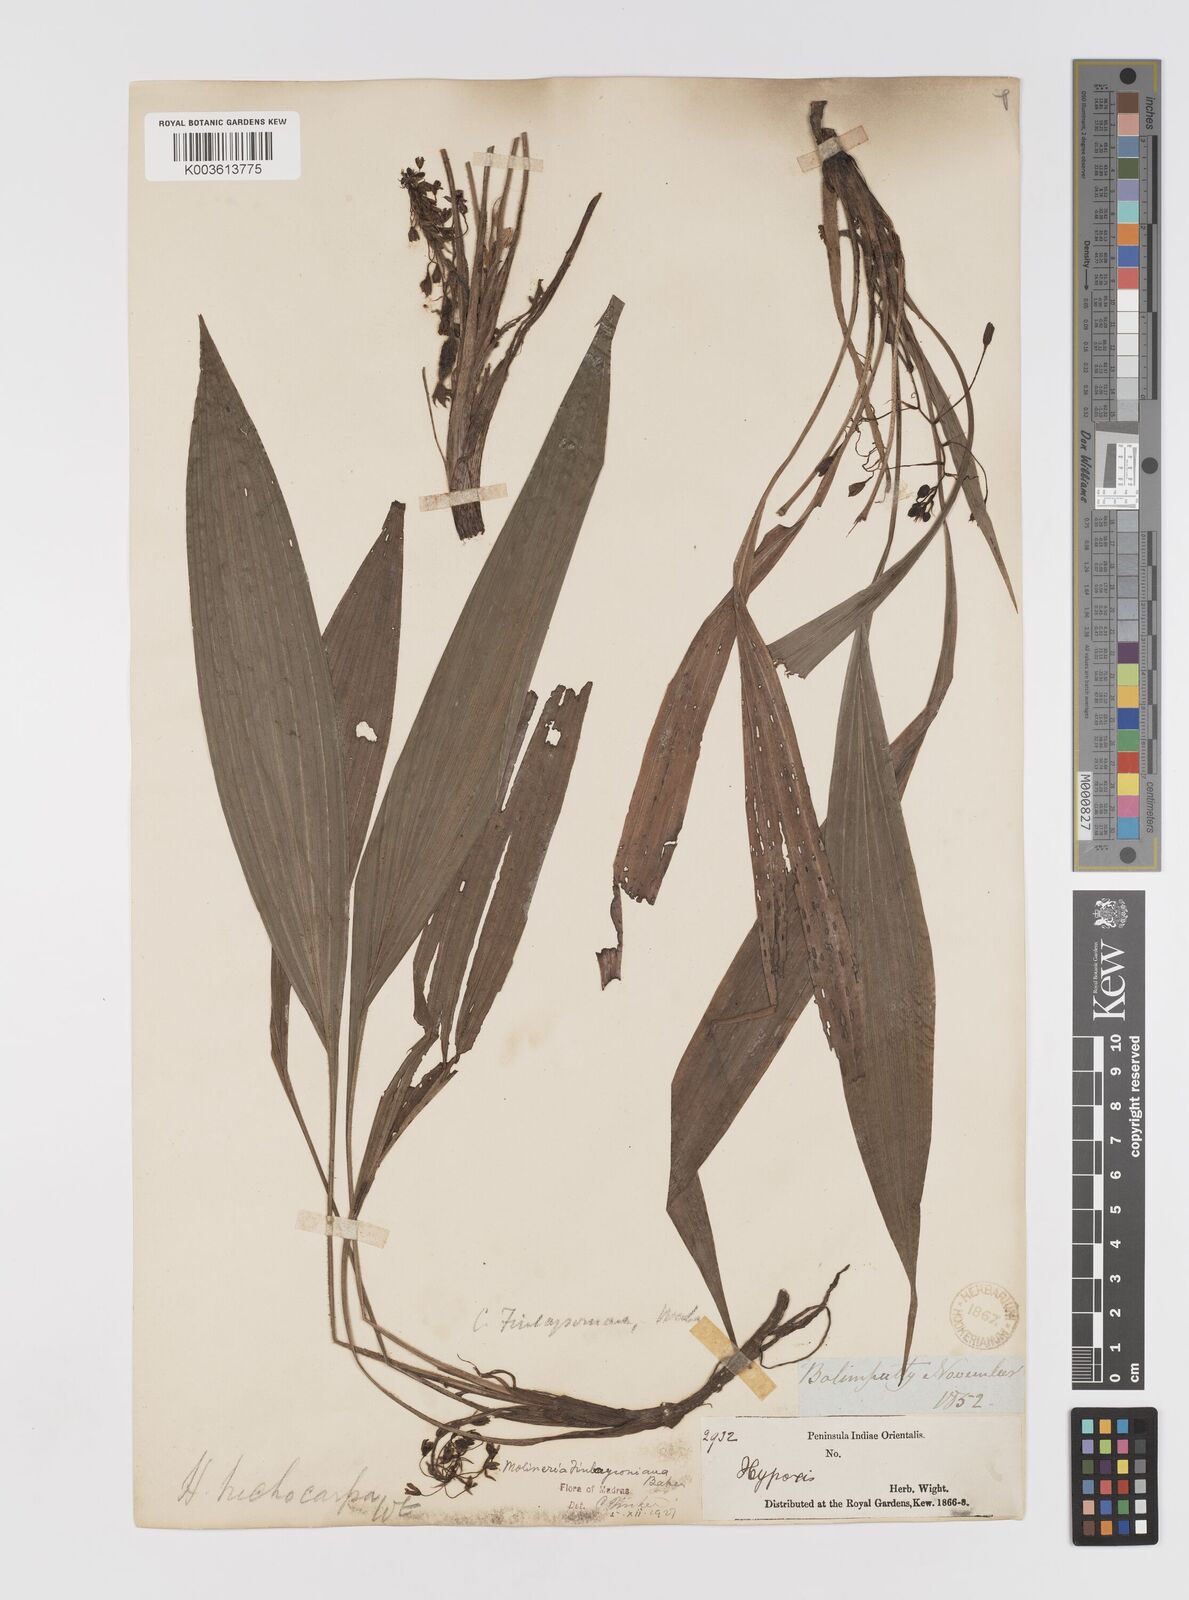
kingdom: Plantae
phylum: Tracheophyta
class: Liliopsida
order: Asparagales
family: Hypoxidaceae
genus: Curculigo
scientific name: Curculigo trichocarpa
